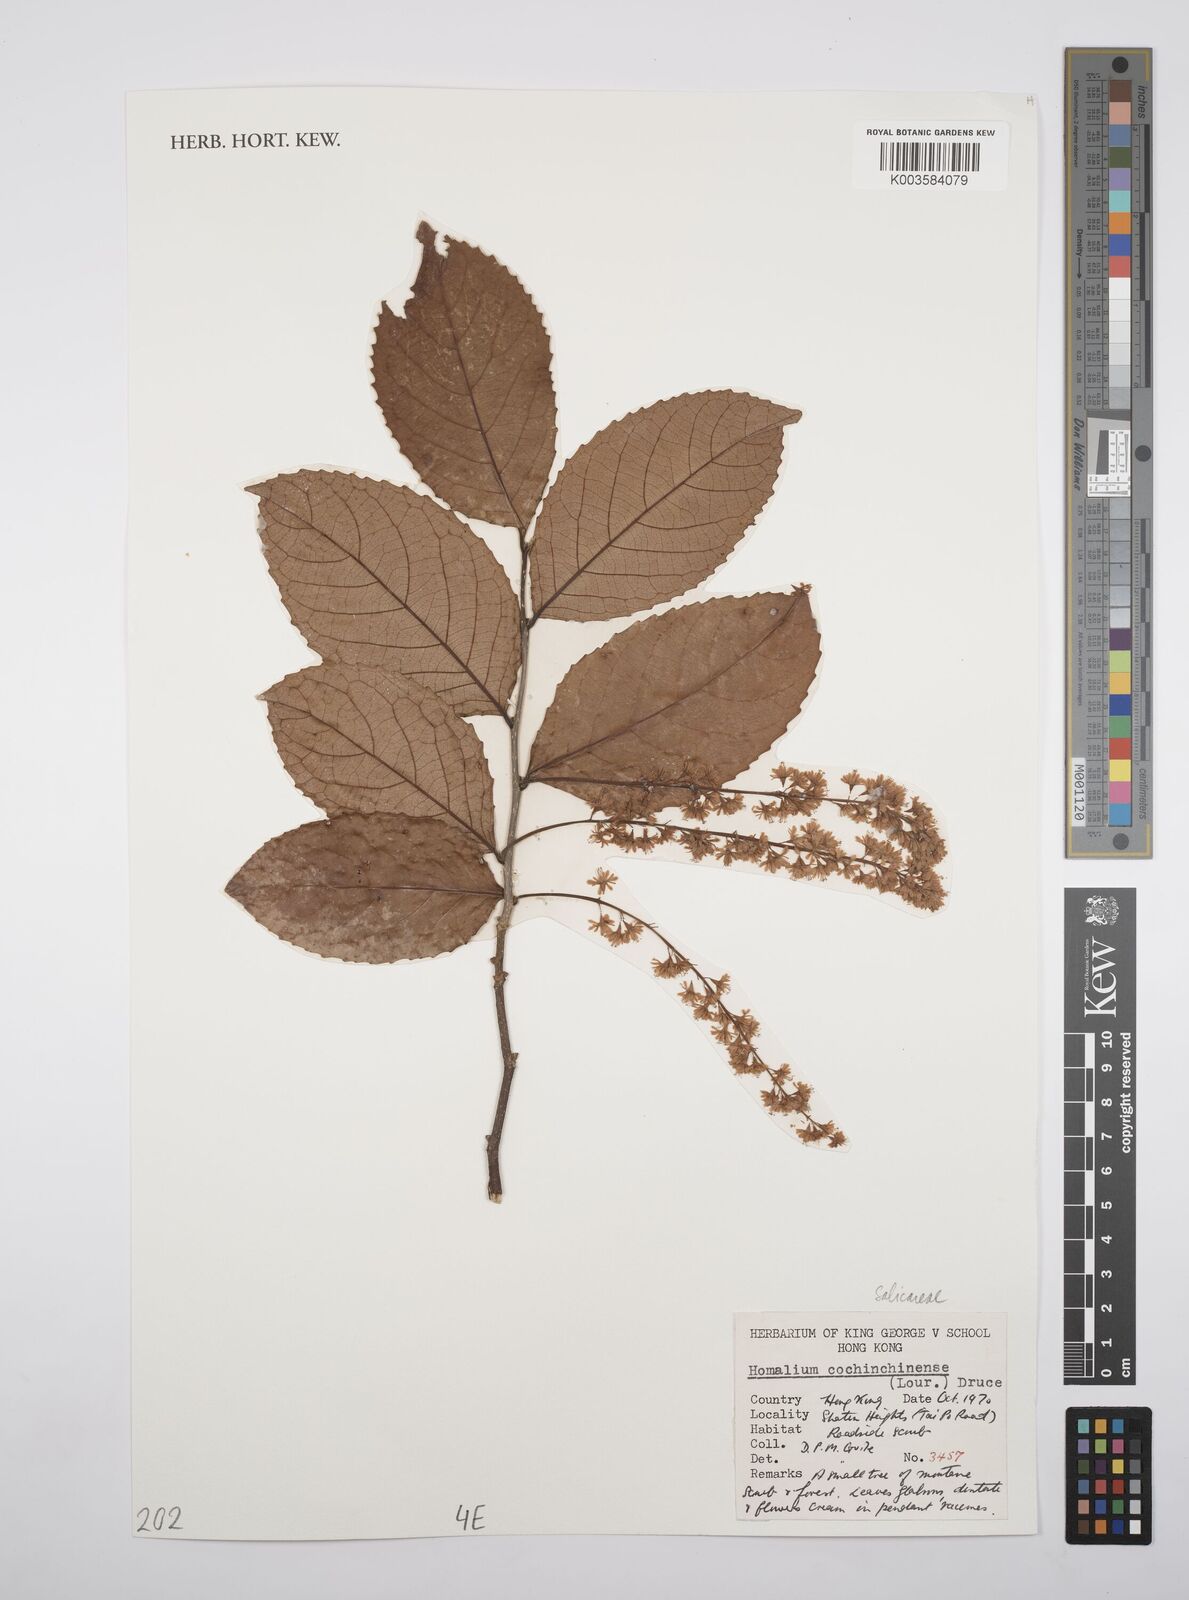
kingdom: Plantae
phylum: Tracheophyta
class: Magnoliopsida
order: Malpighiales
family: Salicaceae
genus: Homalium
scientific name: Homalium cochinchinensis
